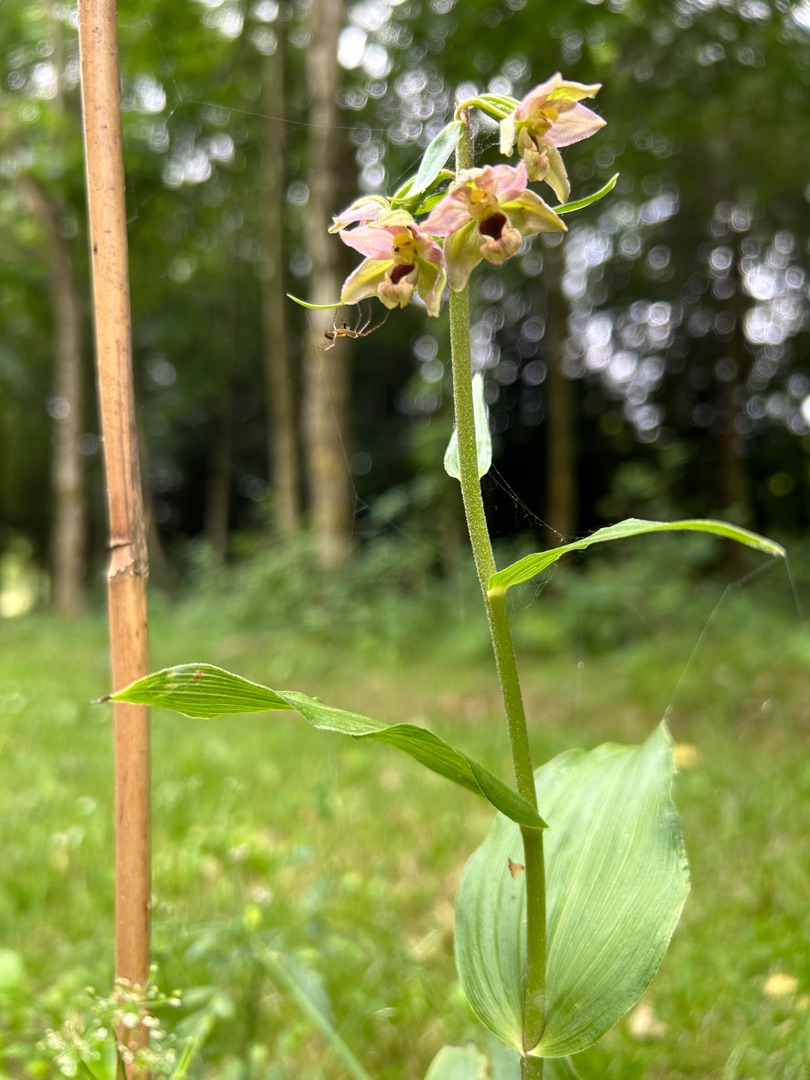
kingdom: Plantae
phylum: Tracheophyta
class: Liliopsida
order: Asparagales
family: Orchidaceae
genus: Epipactis
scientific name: Epipactis helleborine
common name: Skov-hullæbe
